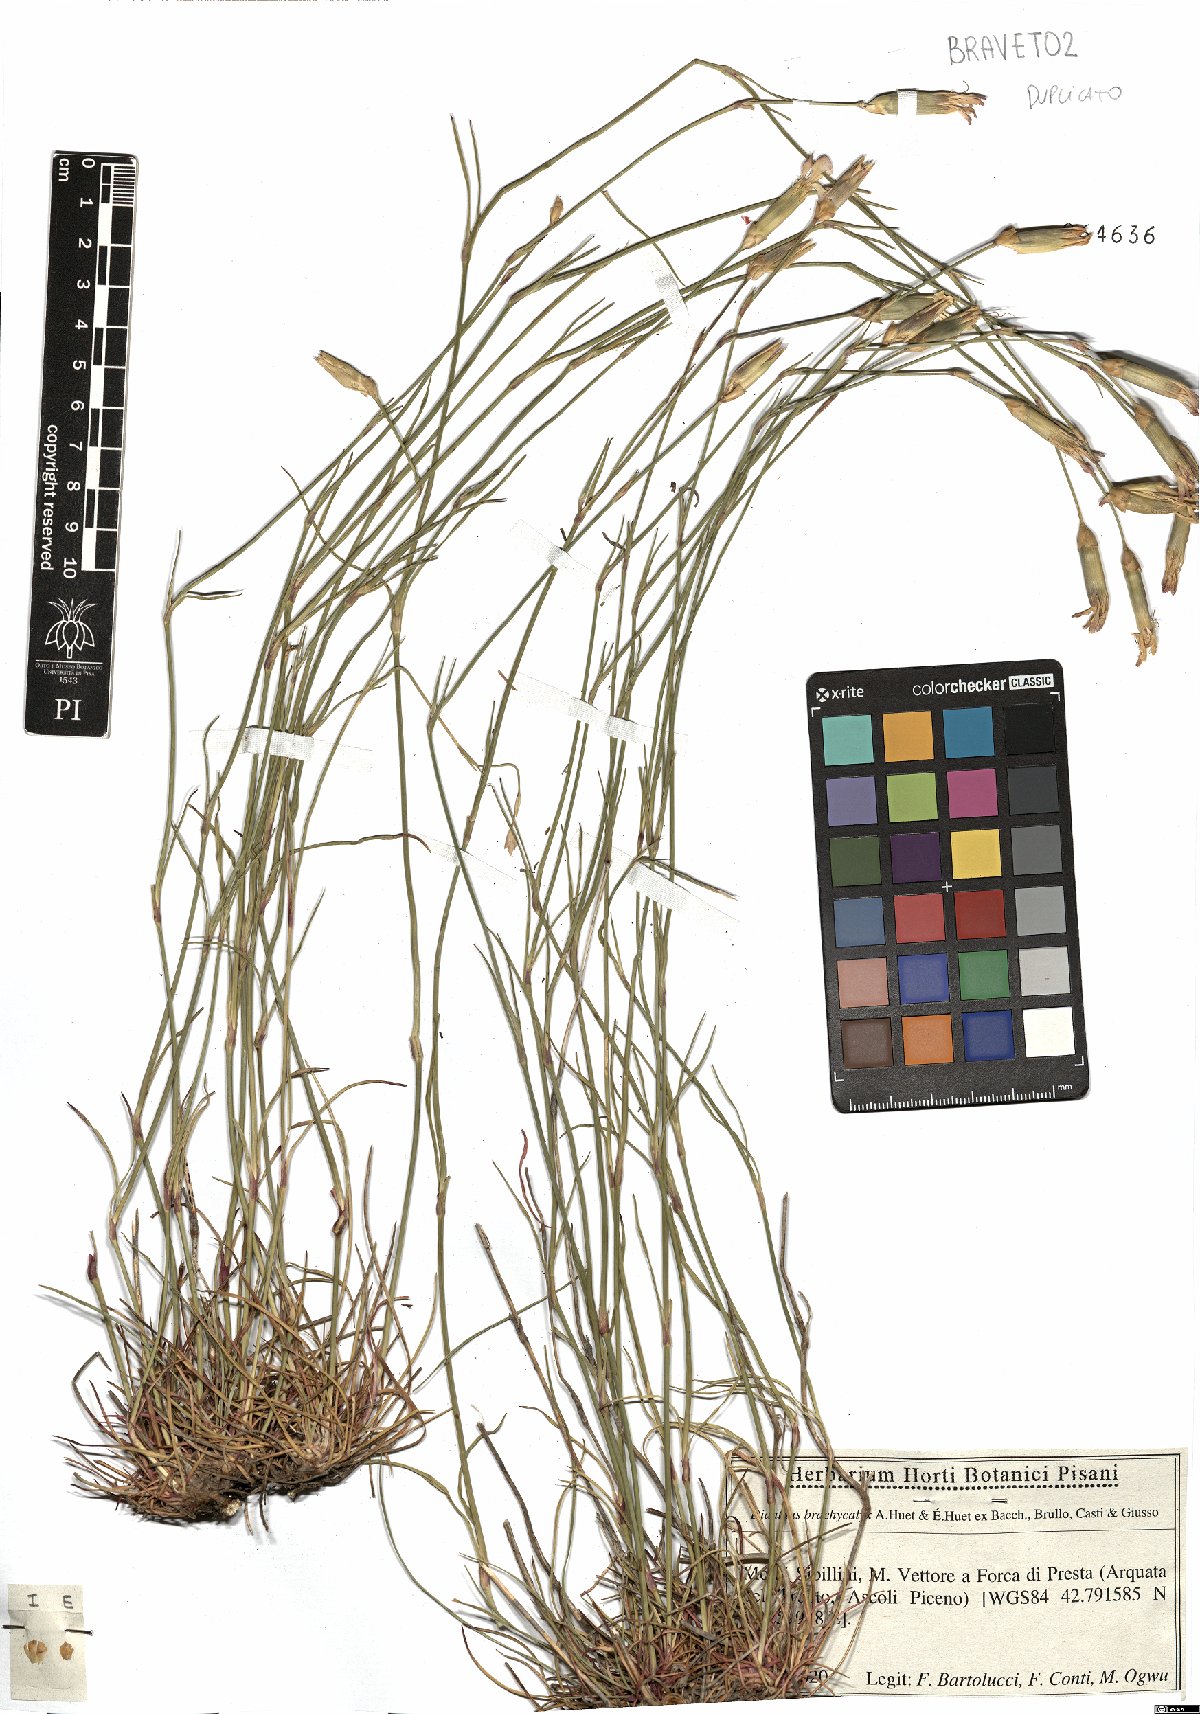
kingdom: Plantae
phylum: Tracheophyta
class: Magnoliopsida
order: Caryophyllales
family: Caryophyllaceae
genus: Dianthus
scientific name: Dianthus brachycalyx
